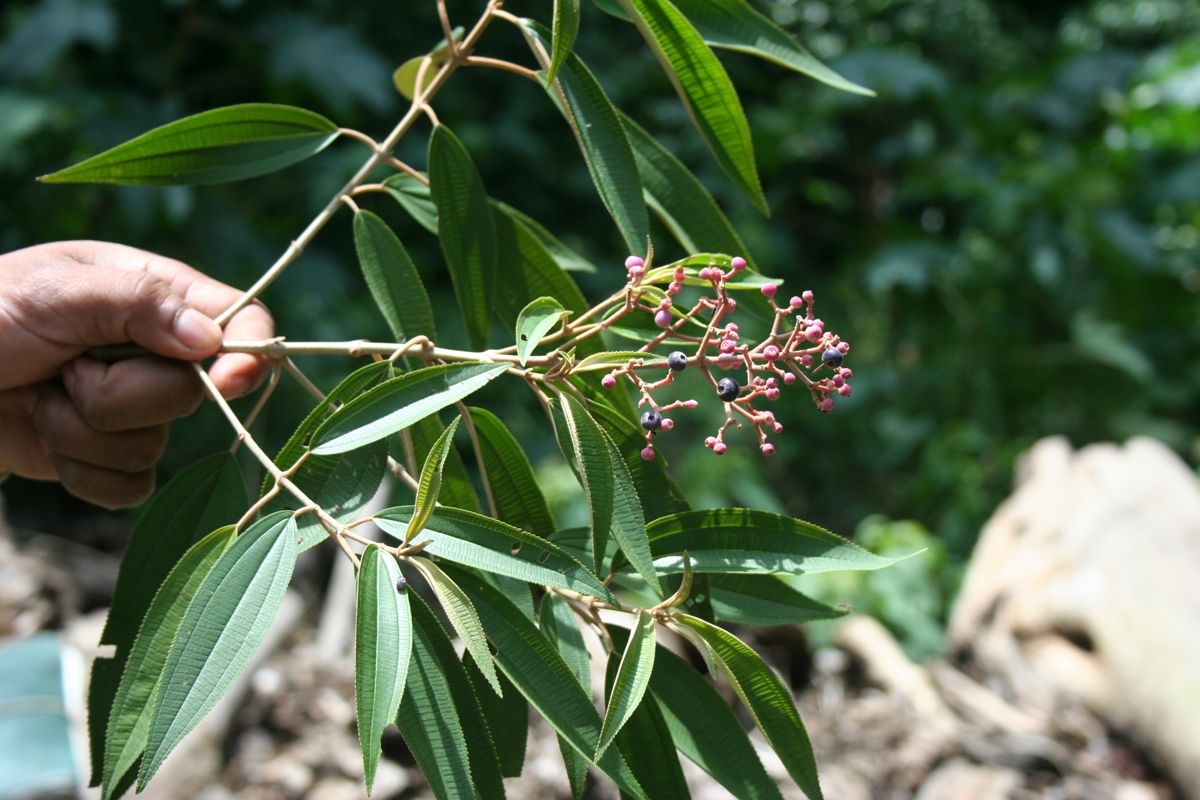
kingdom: Plantae
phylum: Tracheophyta
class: Magnoliopsida
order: Myrtales
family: Melastomataceae
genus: Miconia
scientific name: Miconia xalapensis
